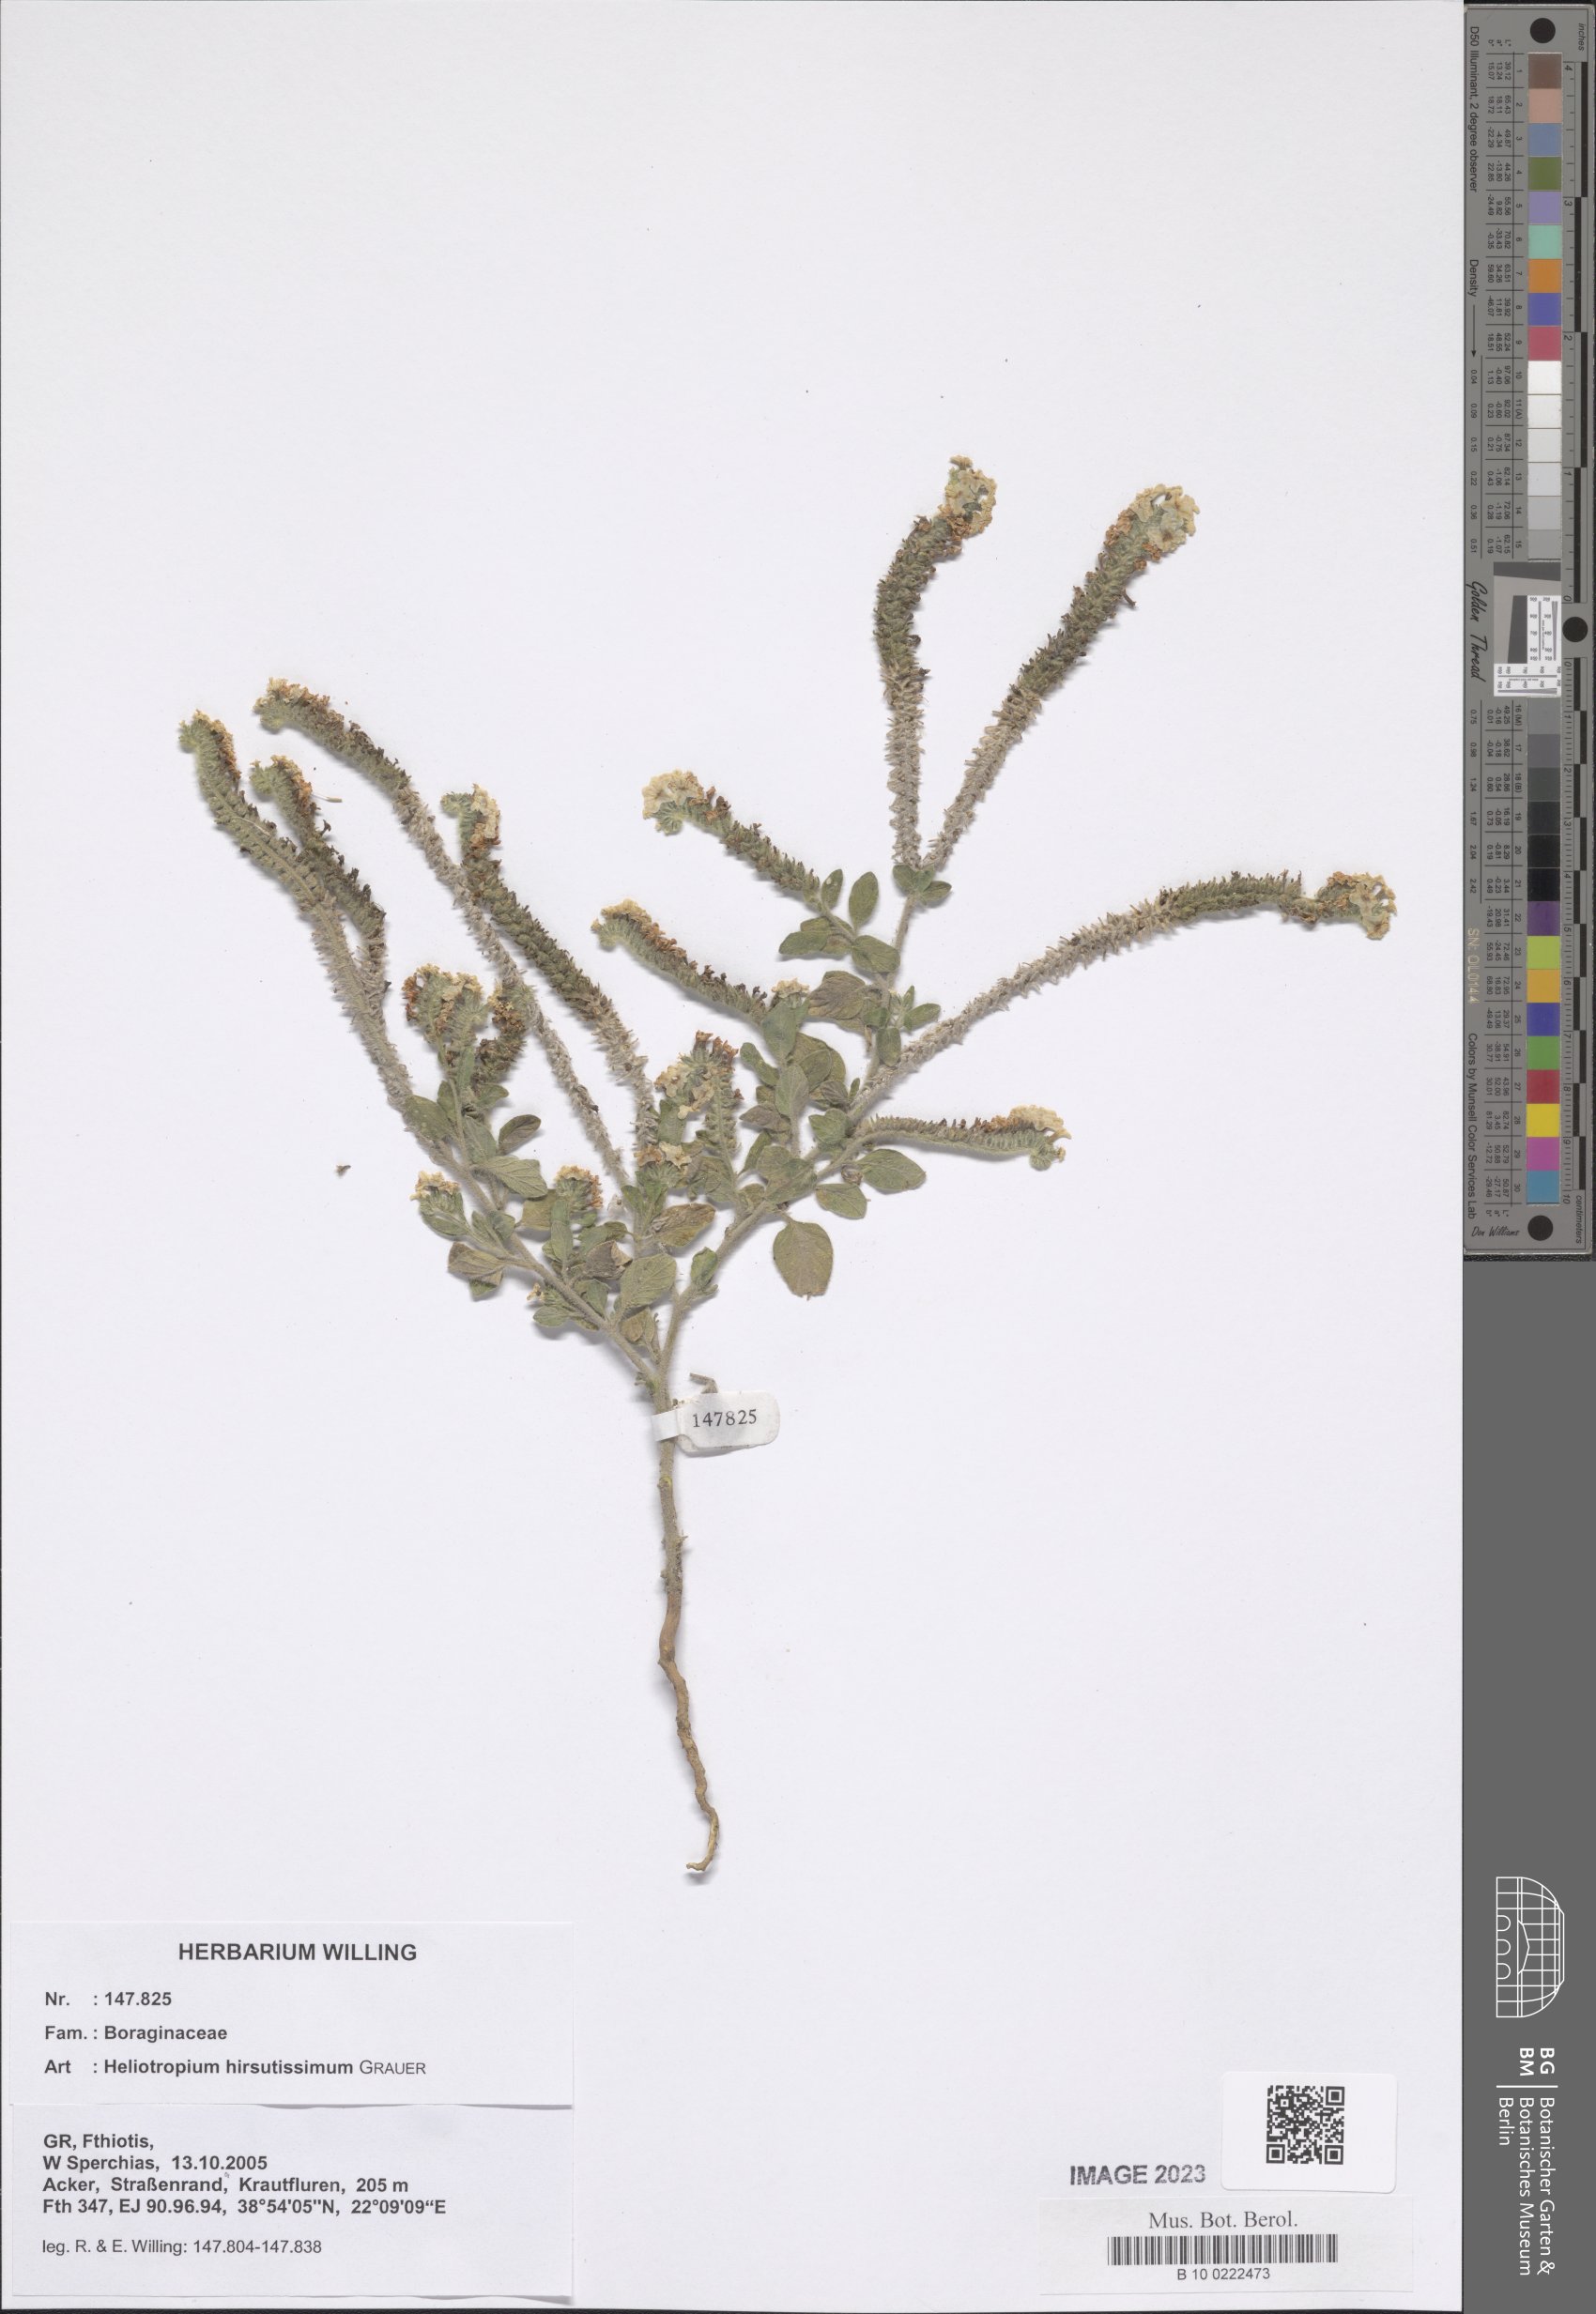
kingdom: Plantae
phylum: Tracheophyta
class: Magnoliopsida
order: Boraginales
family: Heliotropiaceae
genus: Heliotropium
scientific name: Heliotropium hirsutissimum
